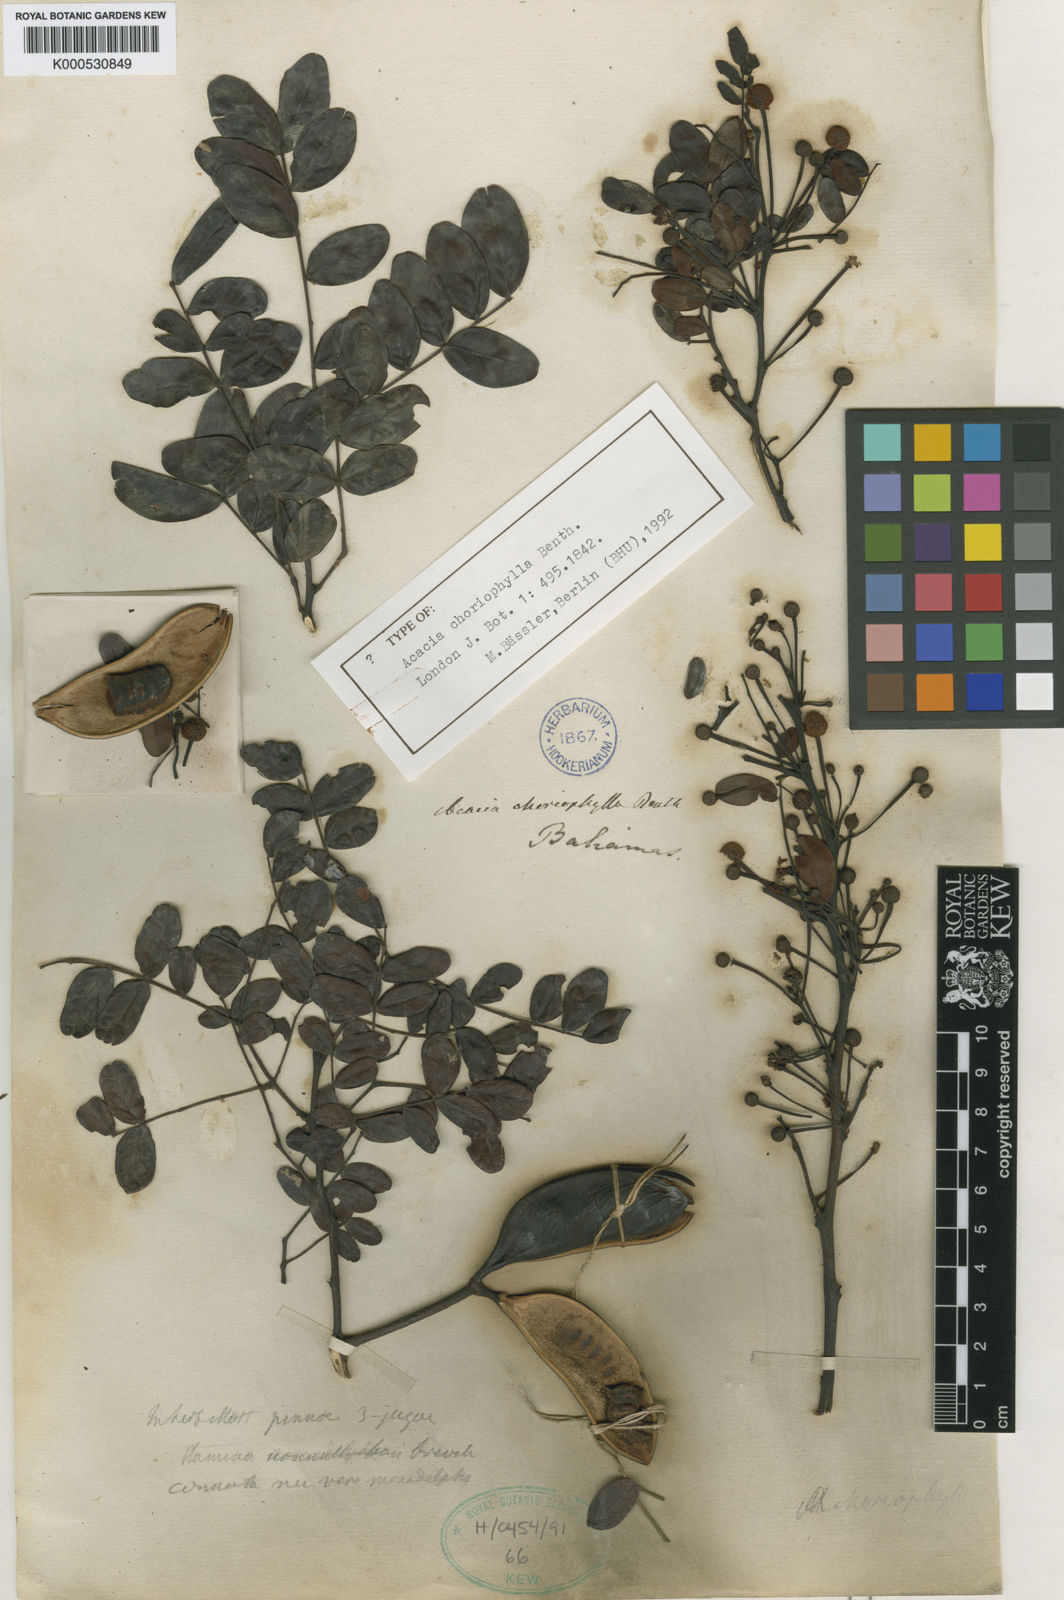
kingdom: Plantae
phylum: Tracheophyta
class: Magnoliopsida
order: Fabales
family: Fabaceae
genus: Vachellia
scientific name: Vachellia choriophylla
